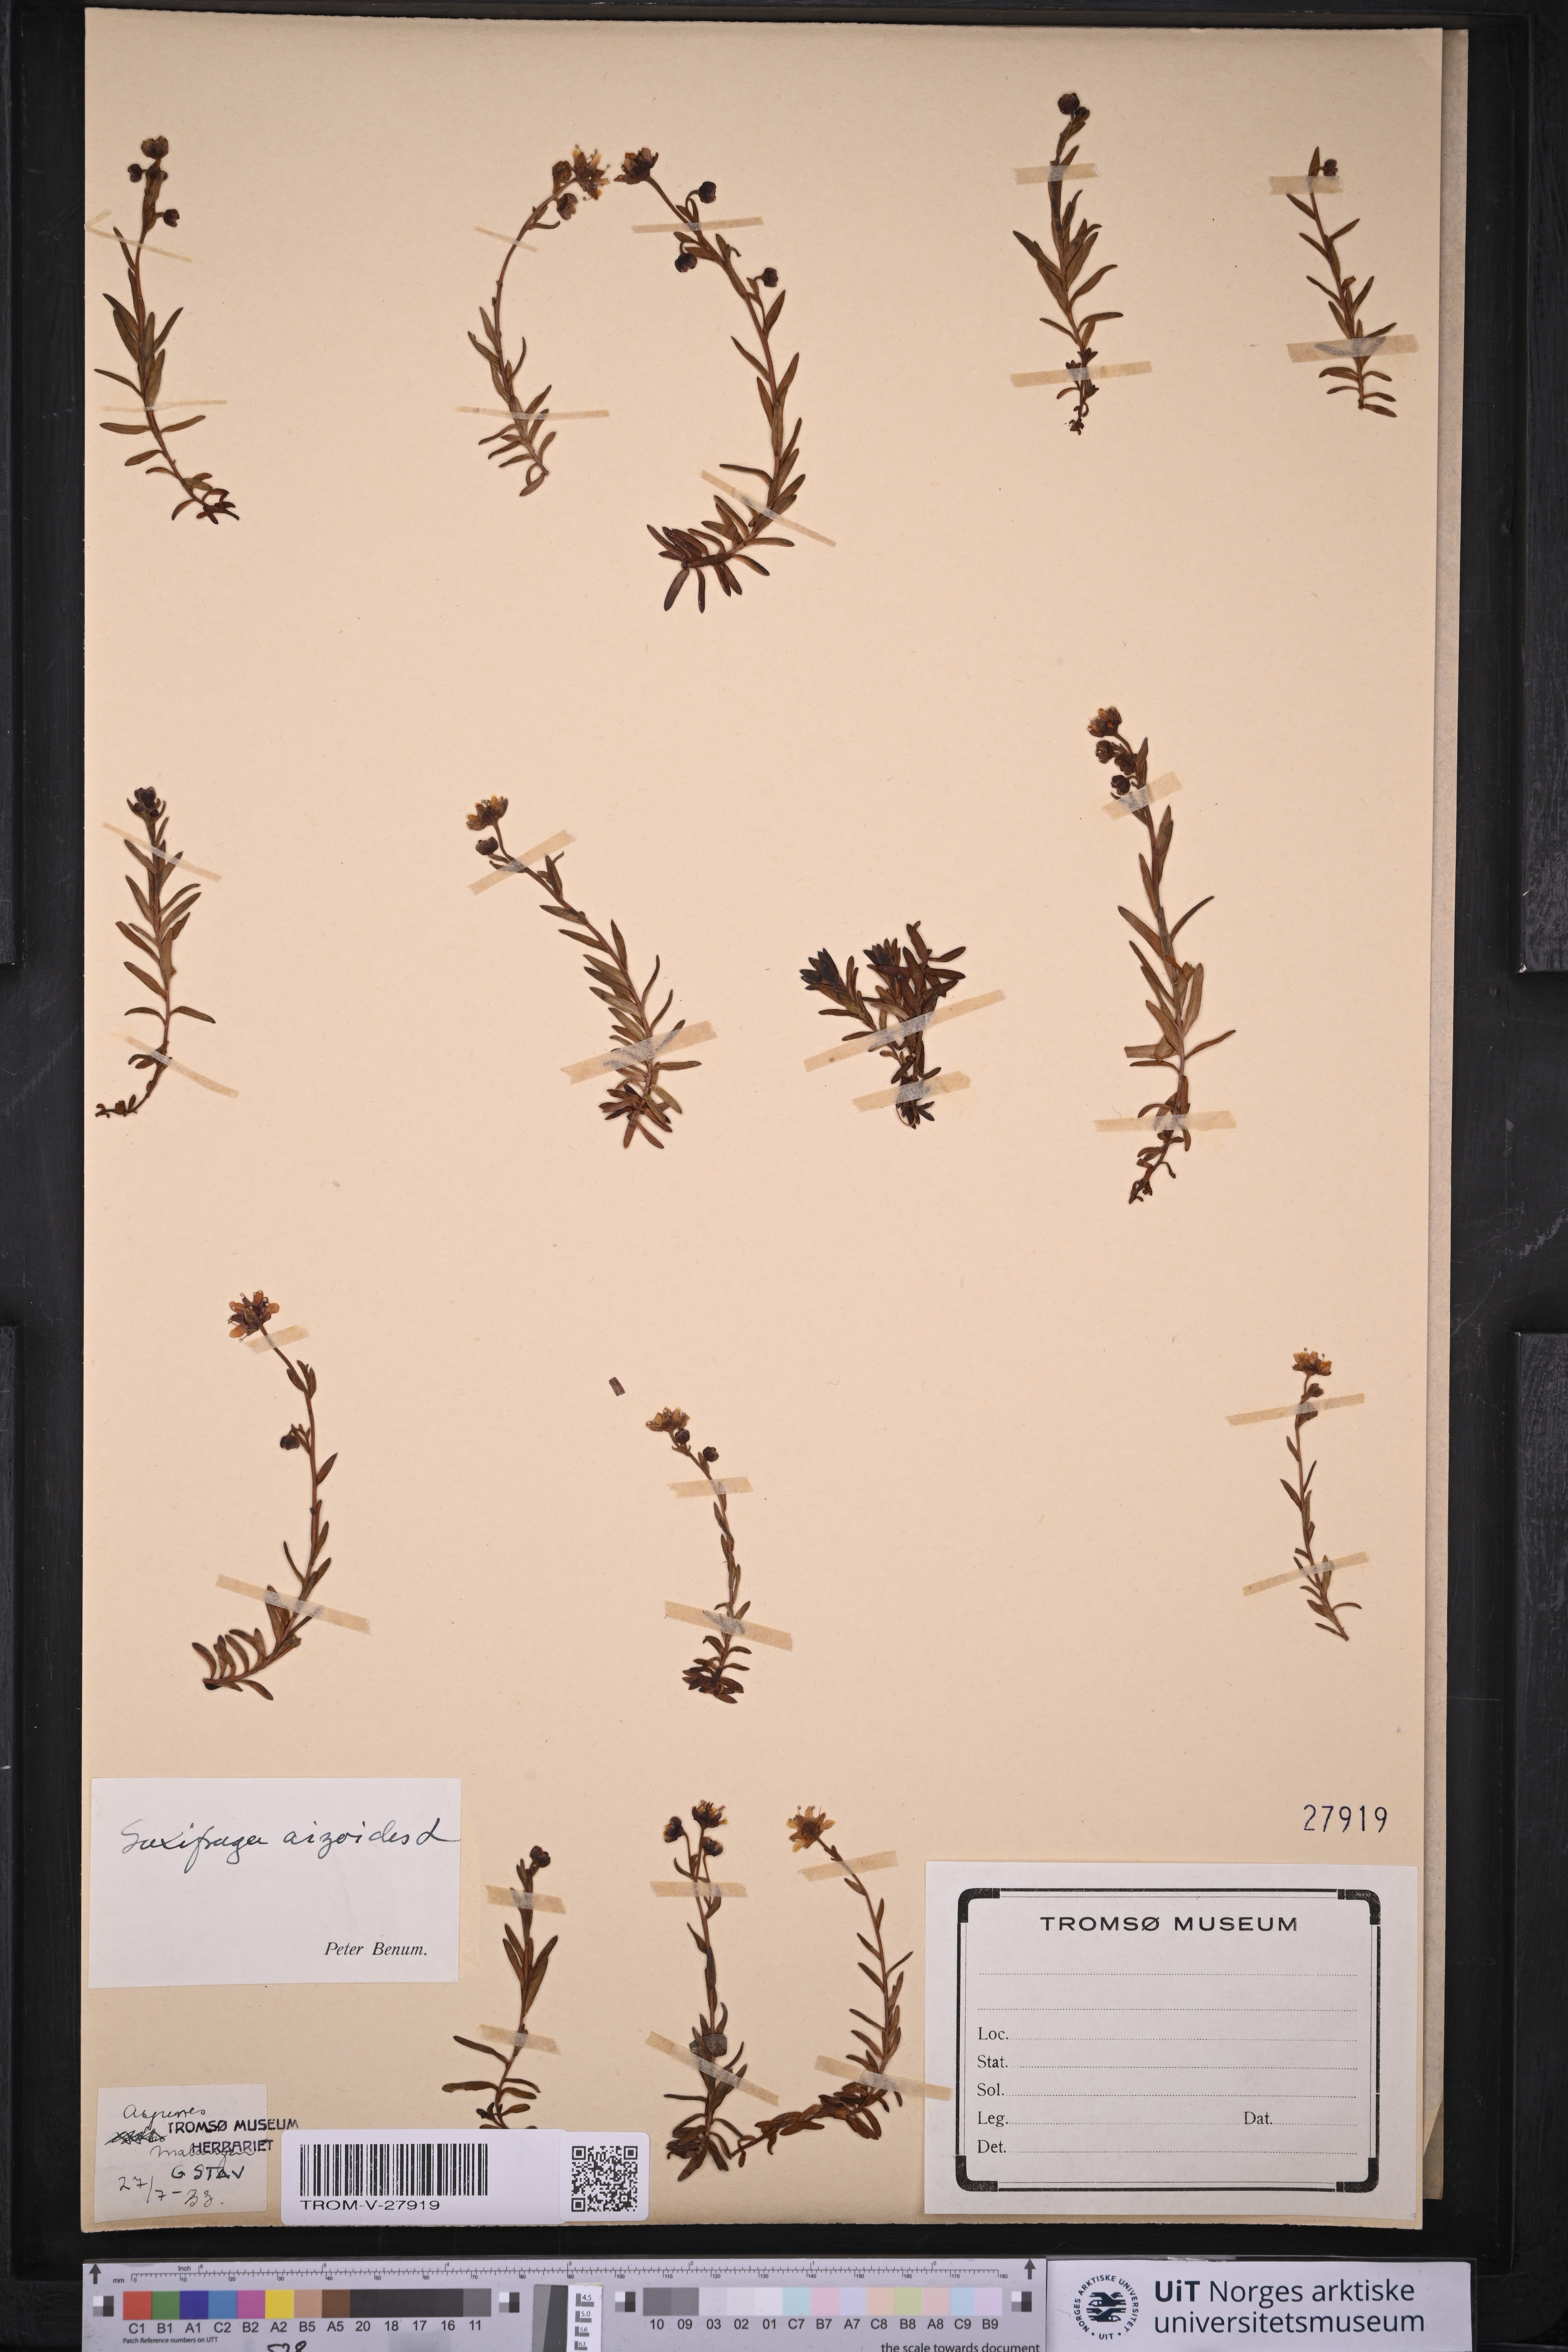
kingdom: Plantae
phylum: Tracheophyta
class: Magnoliopsida
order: Saxifragales
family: Saxifragaceae
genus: Saxifraga
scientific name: Saxifraga aizoides
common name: Yellow mountain saxifrage
